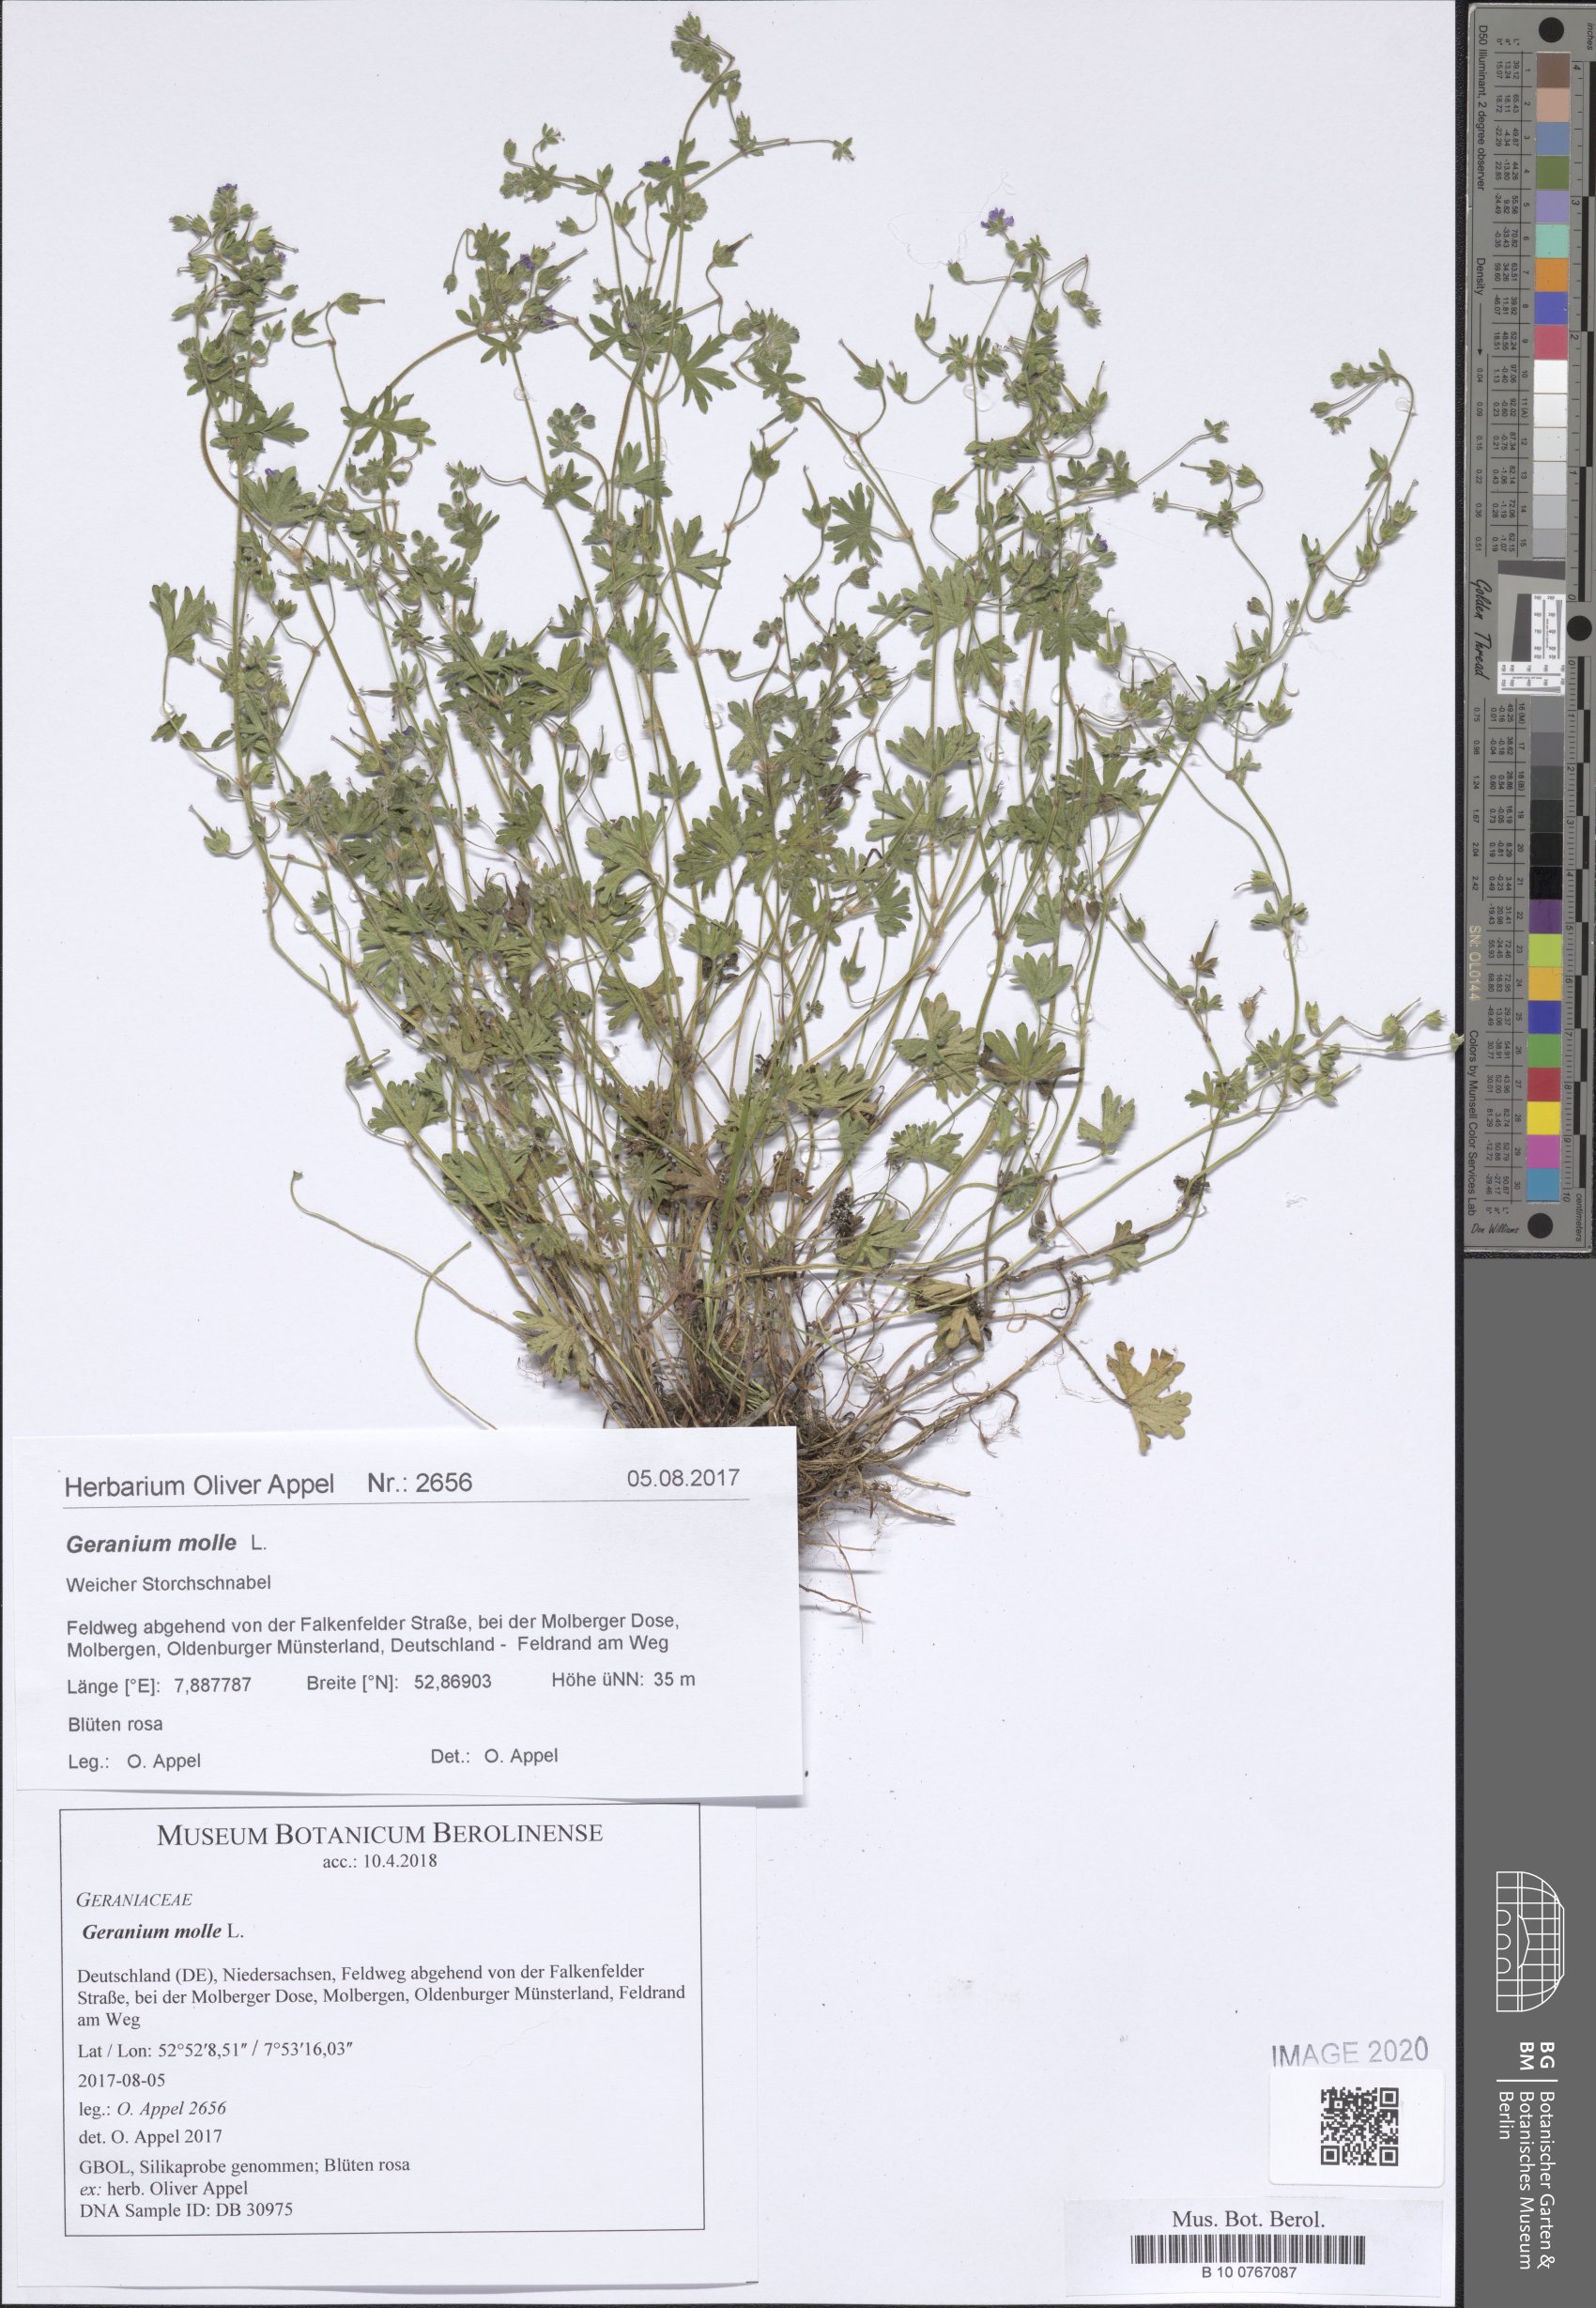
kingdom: Plantae
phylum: Tracheophyta
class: Magnoliopsida
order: Geraniales
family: Geraniaceae
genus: Geranium
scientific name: Geranium molle
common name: Dove's-foot crane's-bill
